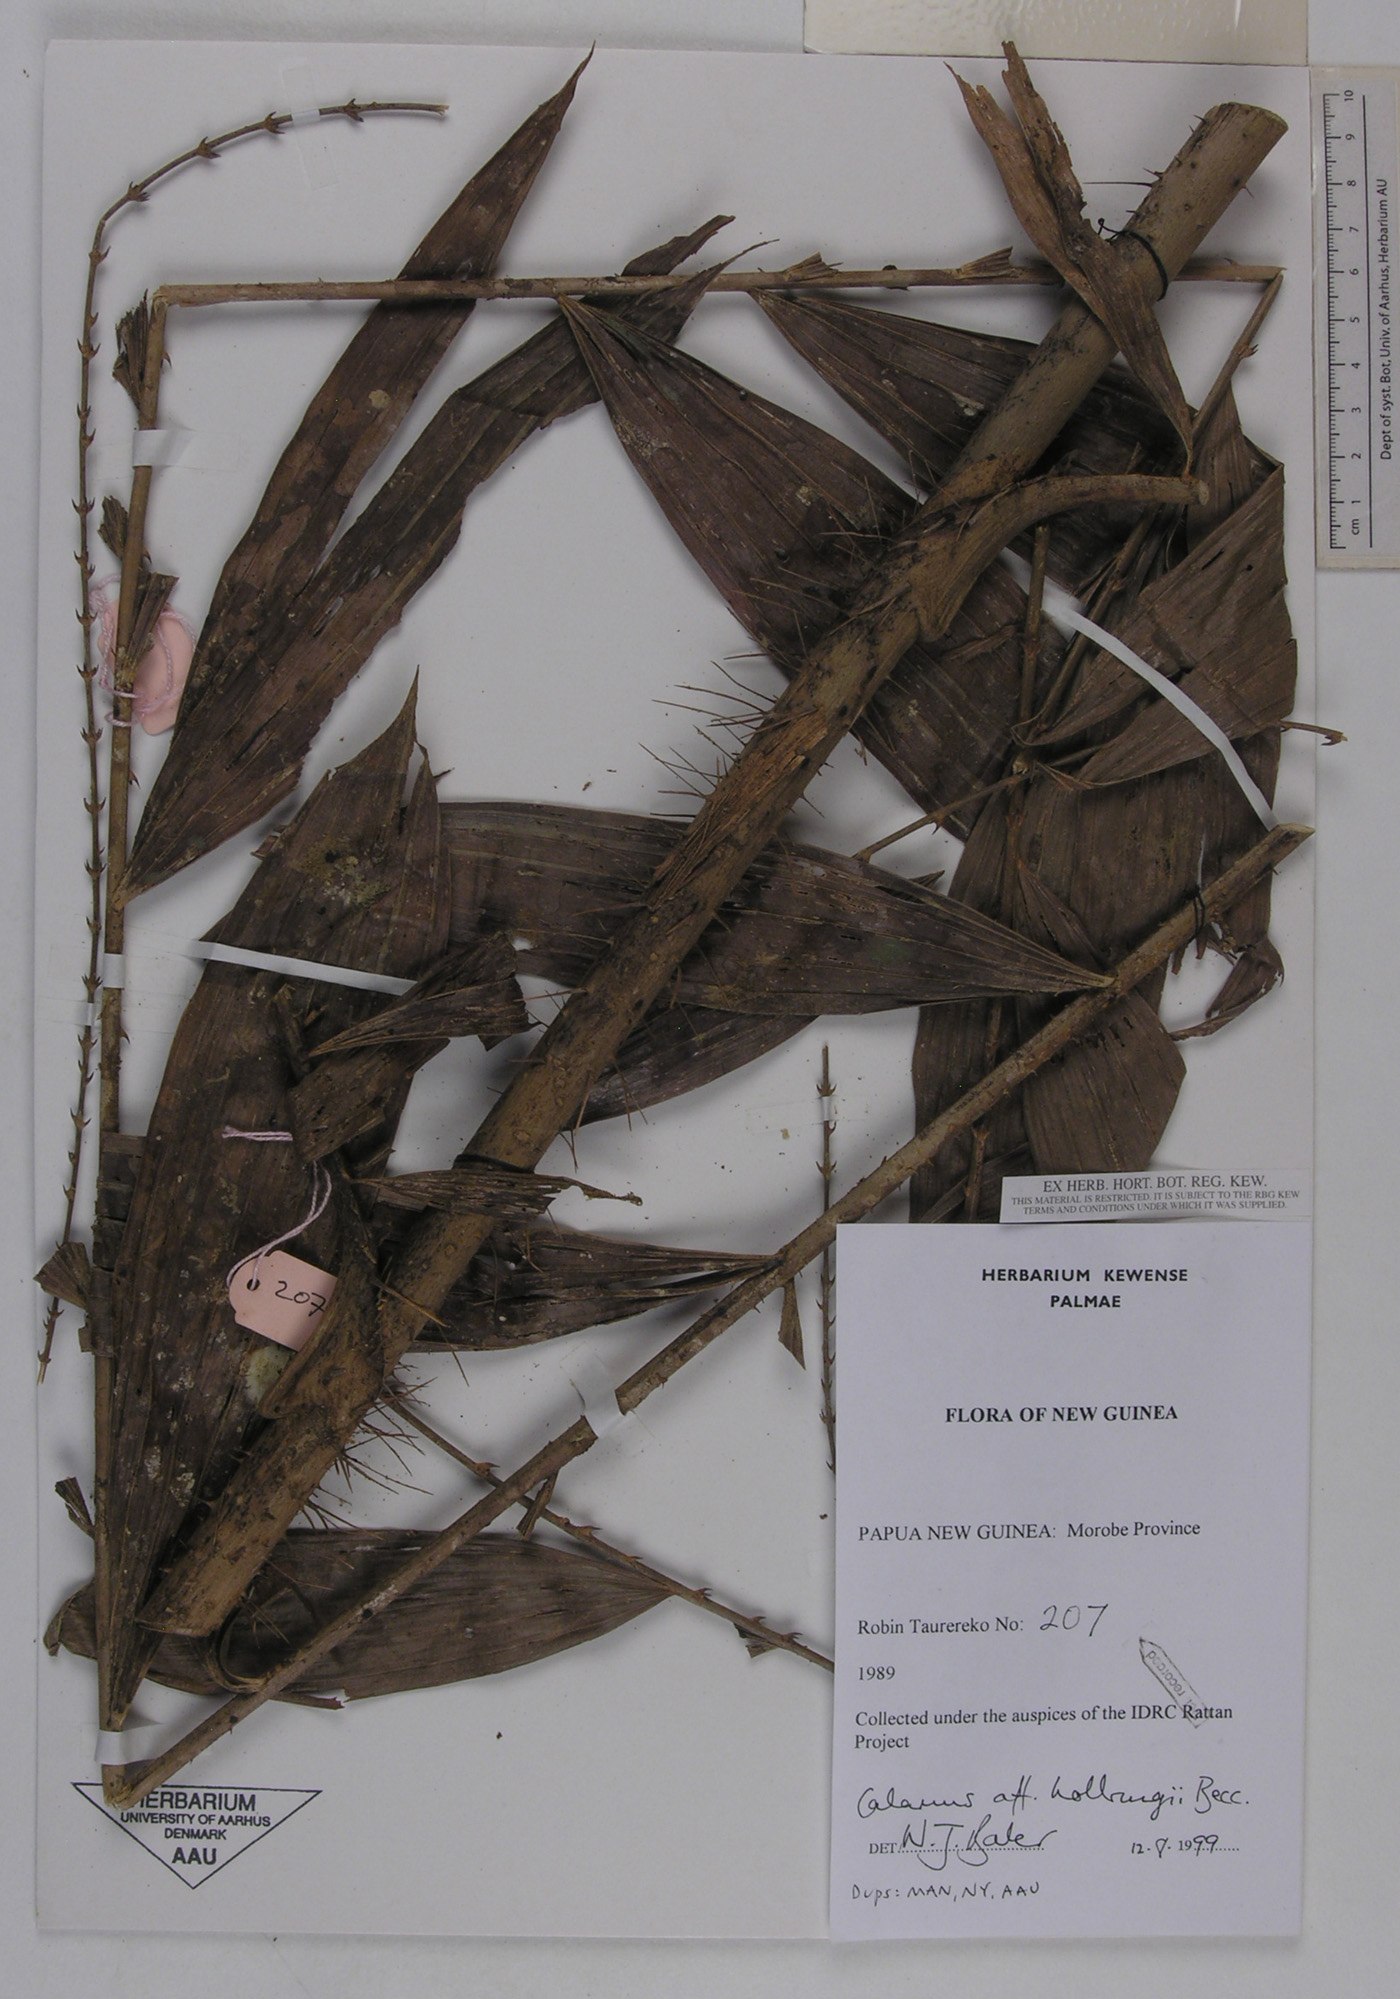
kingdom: Plantae
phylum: Tracheophyta
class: Liliopsida
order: Arecales
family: Arecaceae
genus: Calamus
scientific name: Calamus aruensis
